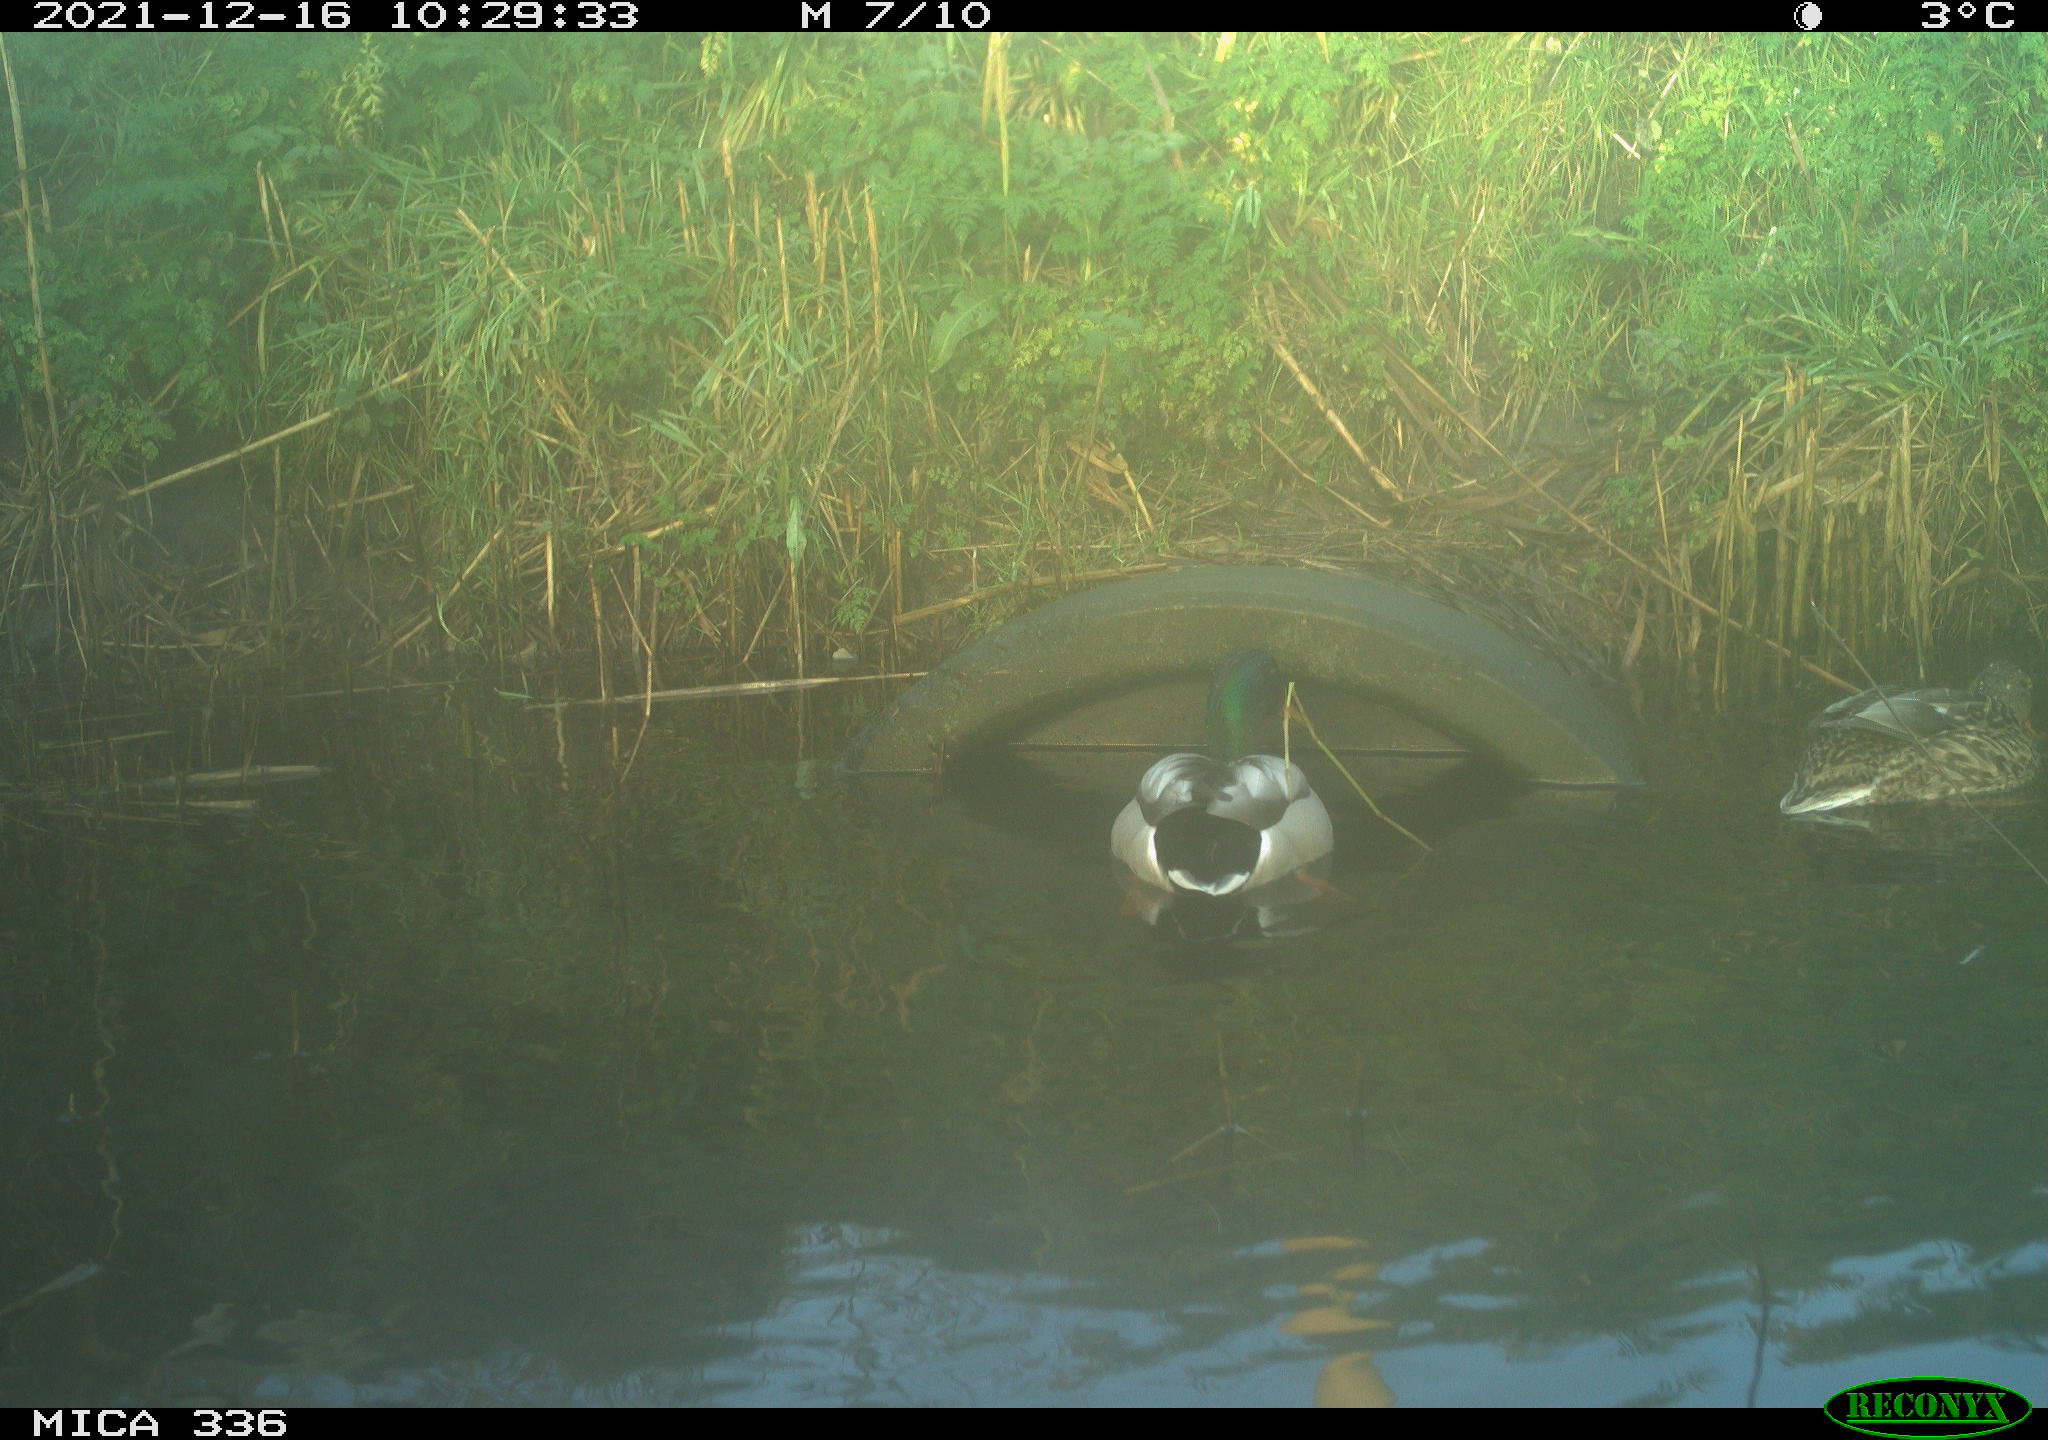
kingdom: Animalia
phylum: Chordata
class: Aves
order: Anseriformes
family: Anatidae
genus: Anas
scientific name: Anas platyrhynchos
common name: Mallard
